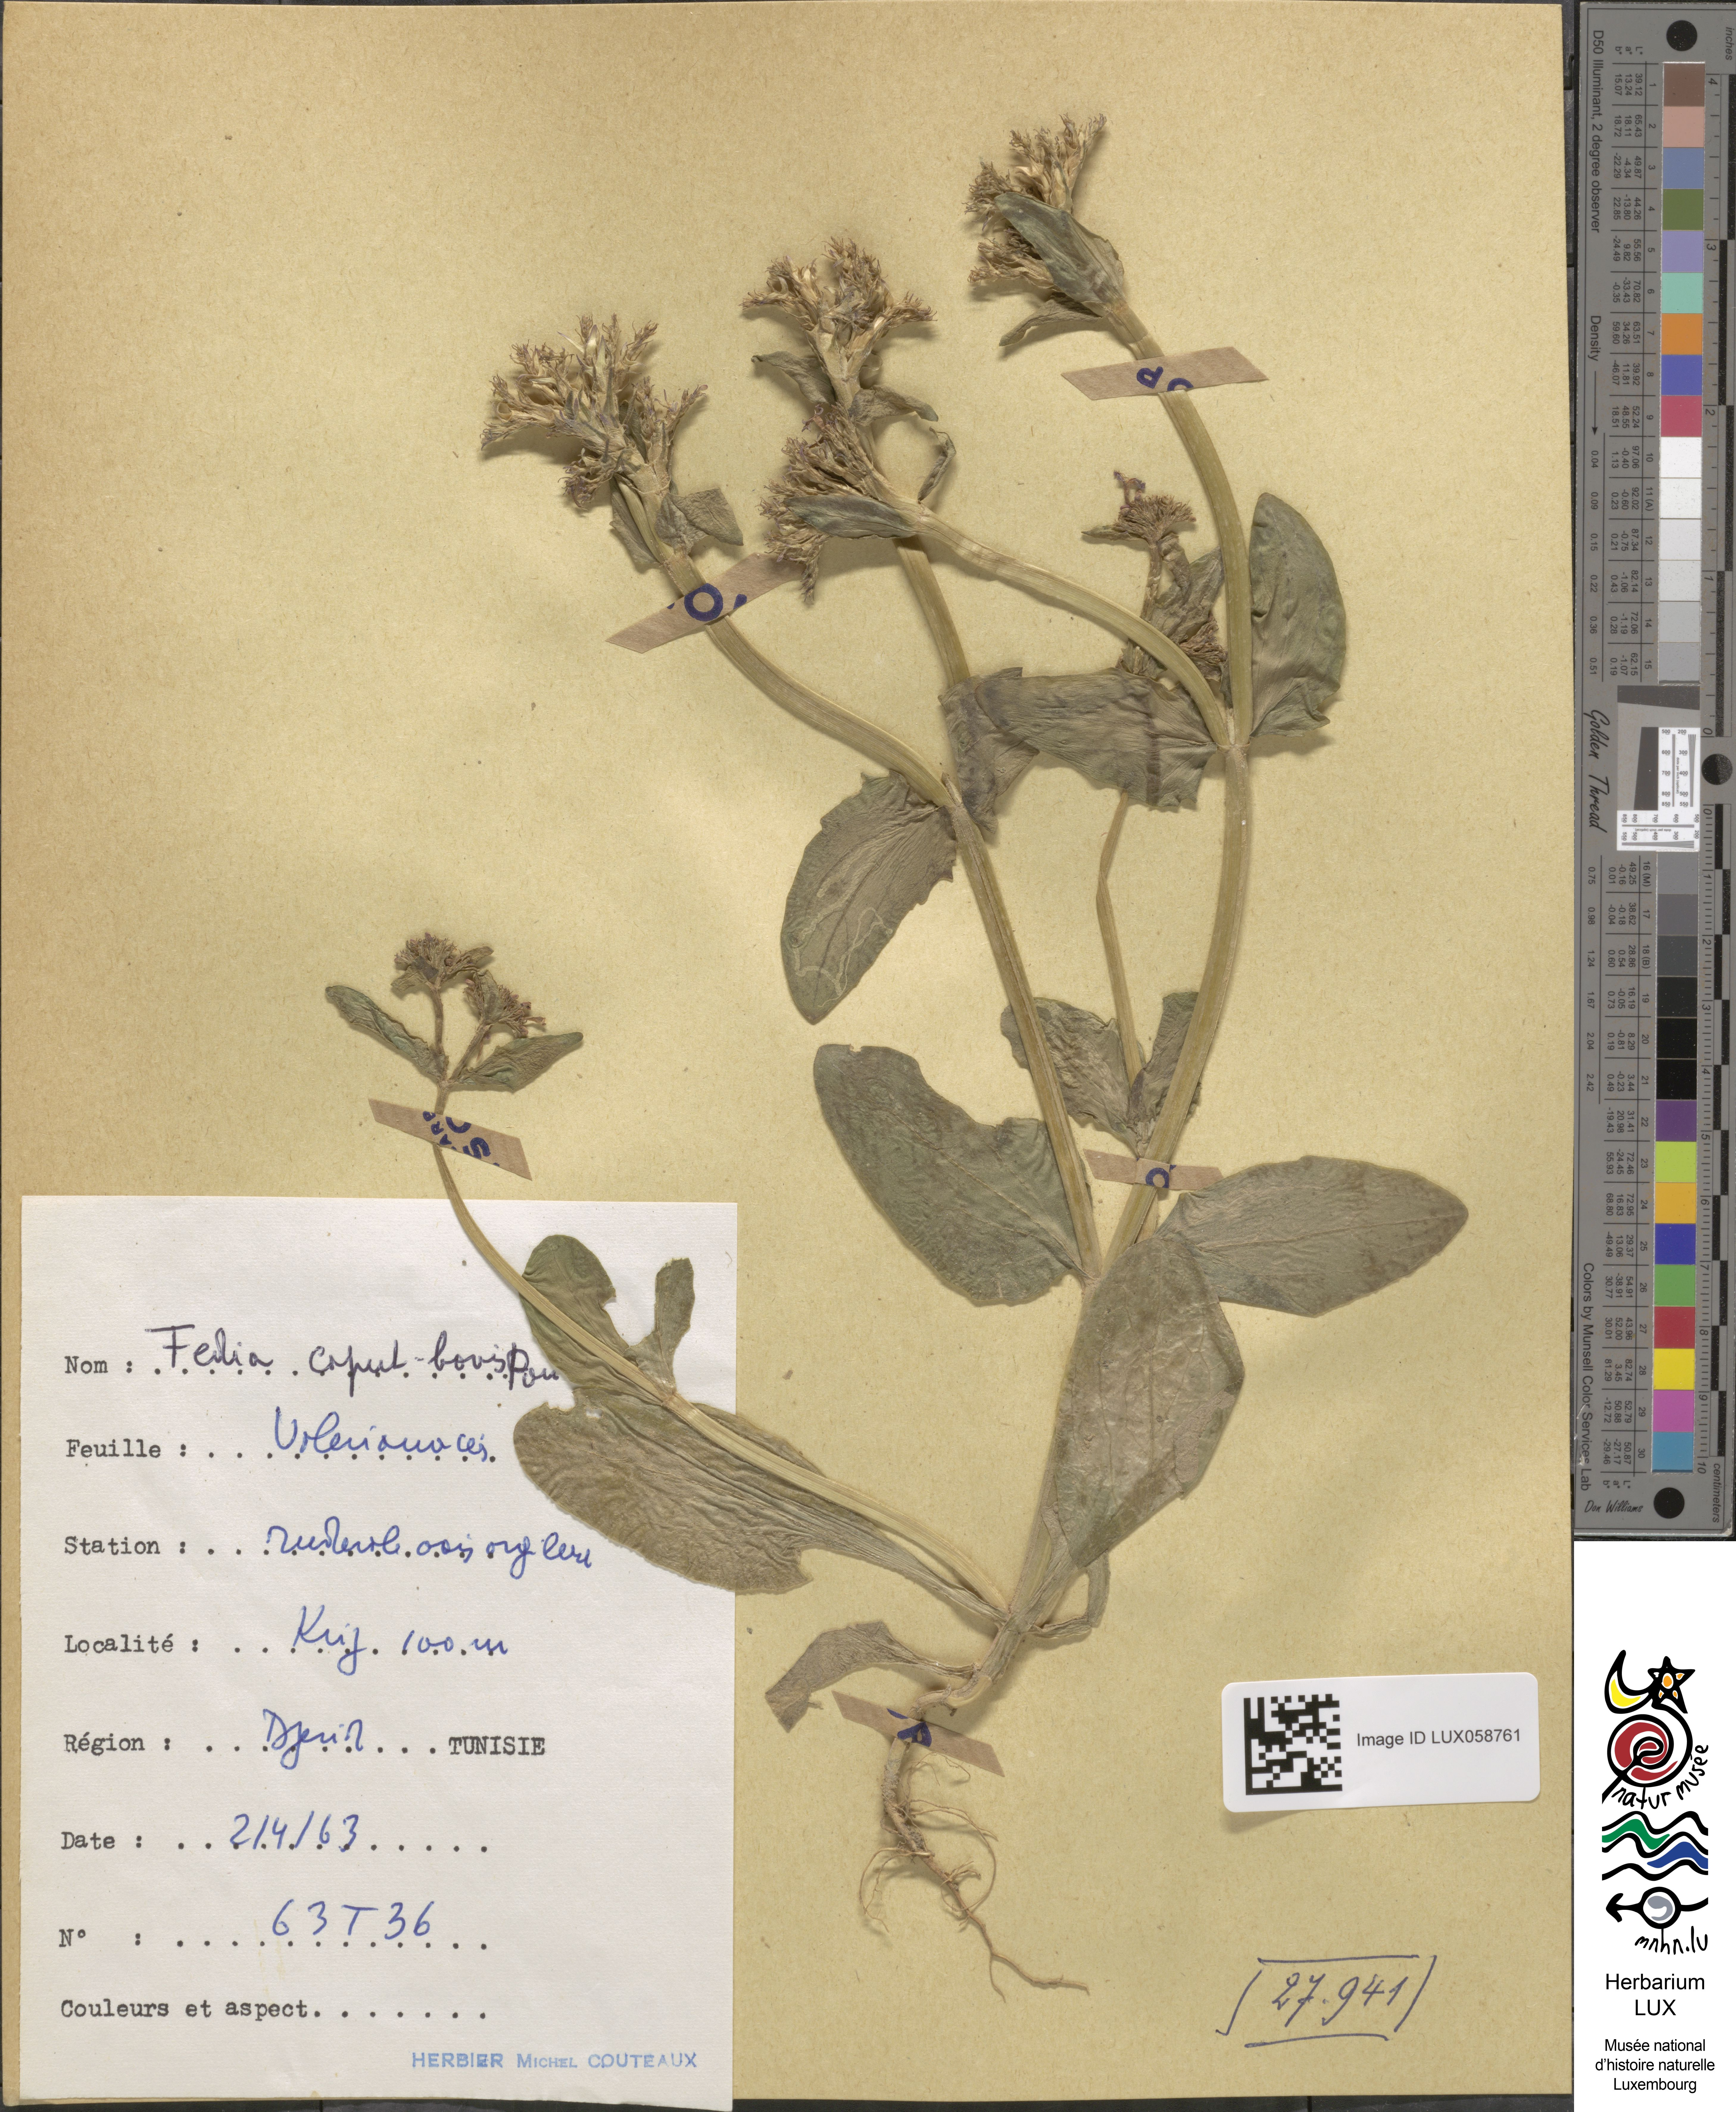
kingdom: Plantae
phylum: Tracheophyta
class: Magnoliopsida
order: Dipsacales
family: Caprifoliaceae
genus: Fedia
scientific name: Fedia graciliflora
